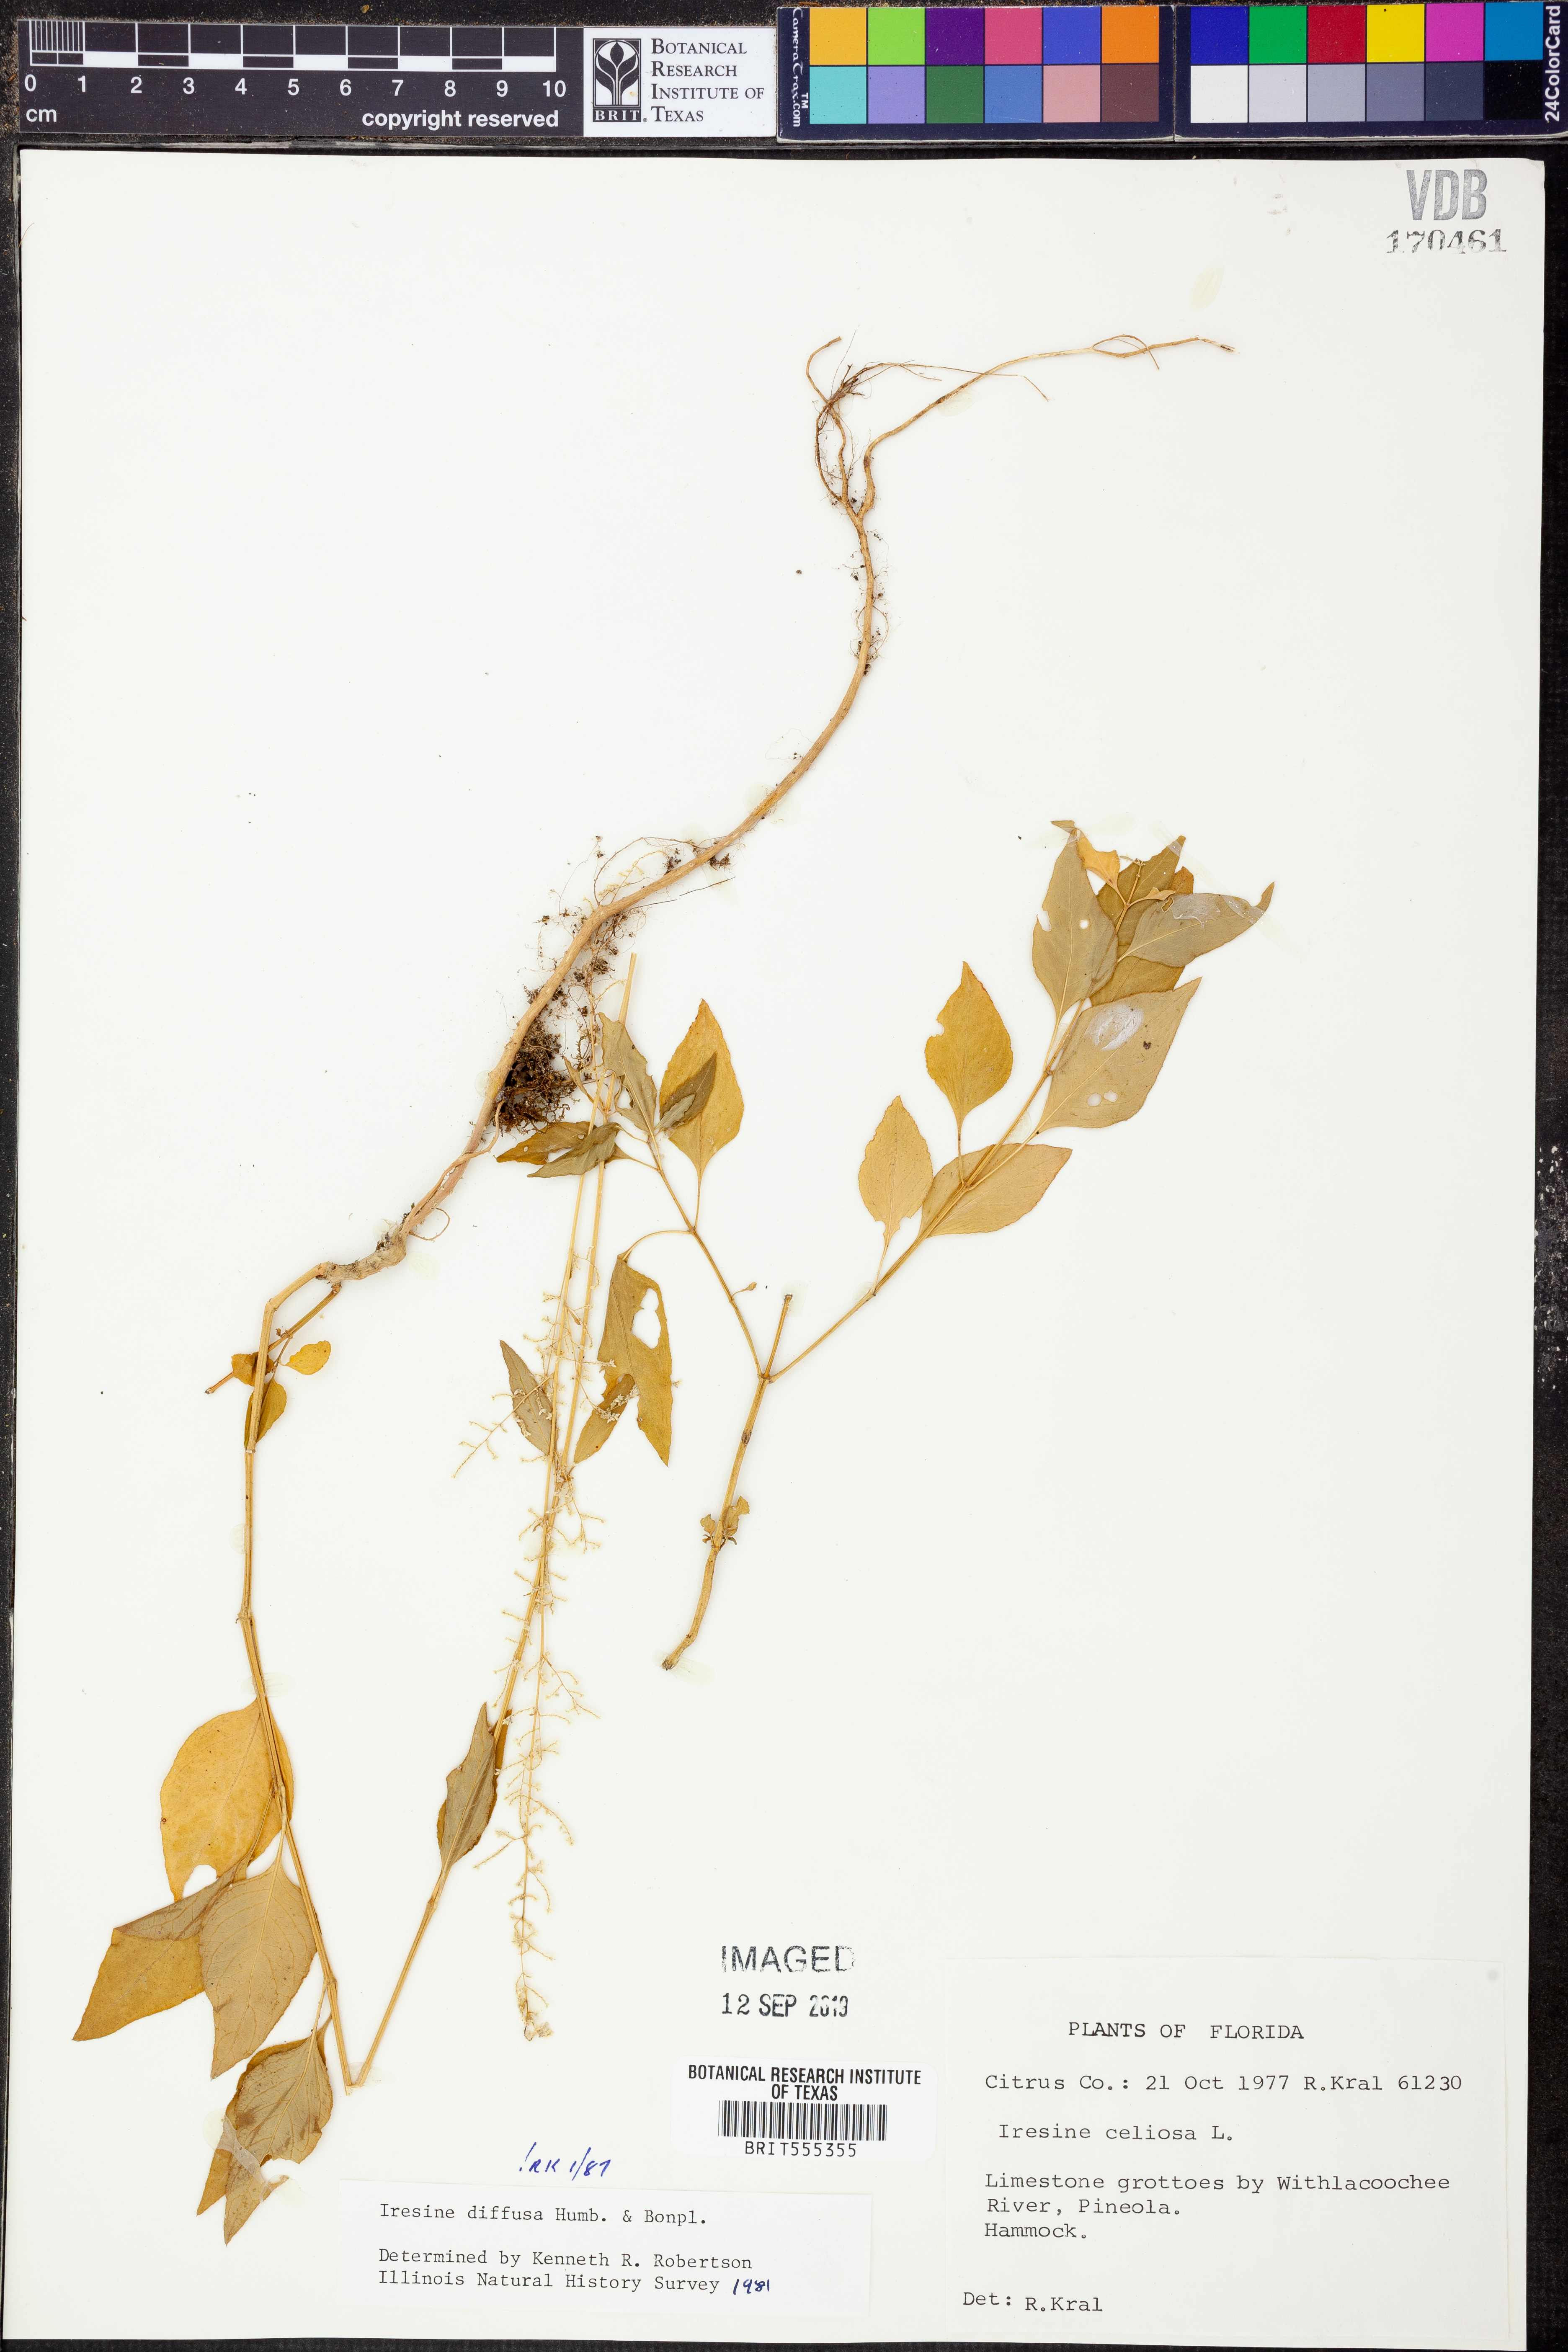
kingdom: Plantae
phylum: Tracheophyta
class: Magnoliopsida
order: Caryophyllales
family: Amaranthaceae
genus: Iresine
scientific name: Iresine diffusa
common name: Juba's-bush
